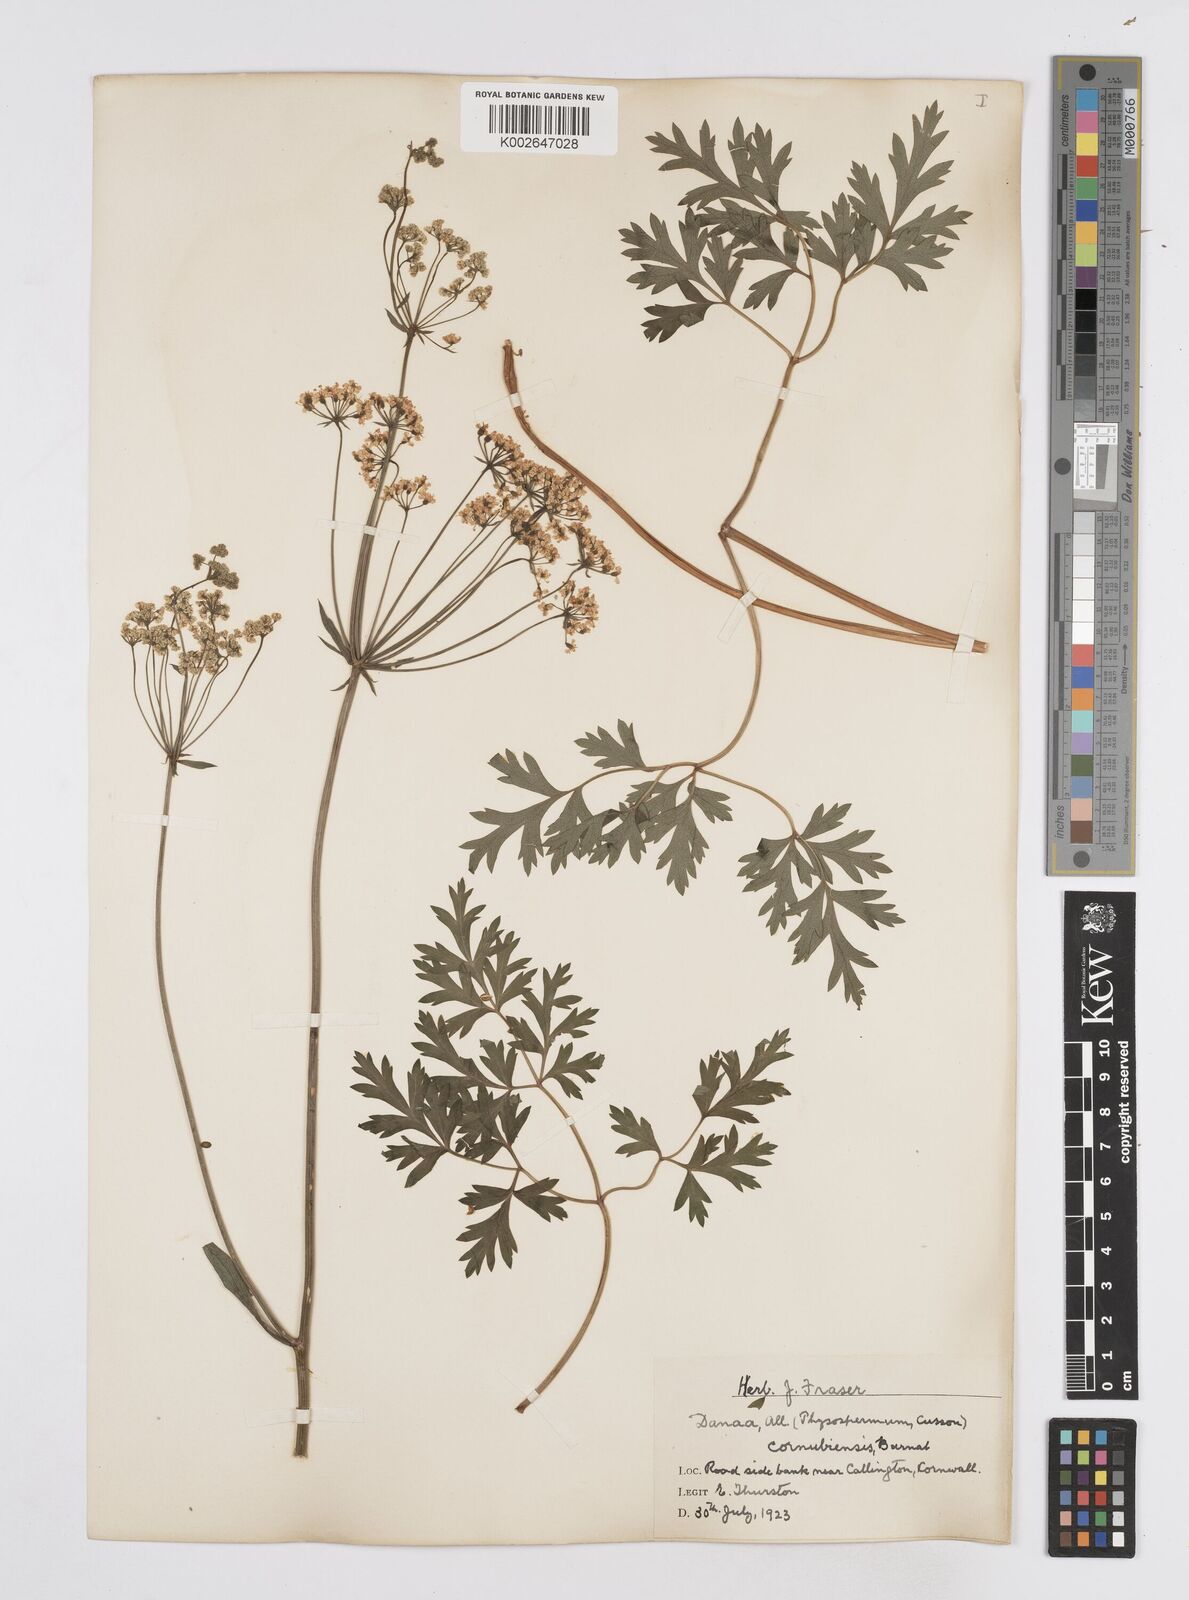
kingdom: Plantae
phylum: Tracheophyta
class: Magnoliopsida
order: Apiales
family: Apiaceae
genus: Physospermum
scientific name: Physospermum cornubiense
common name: Bladderseed
